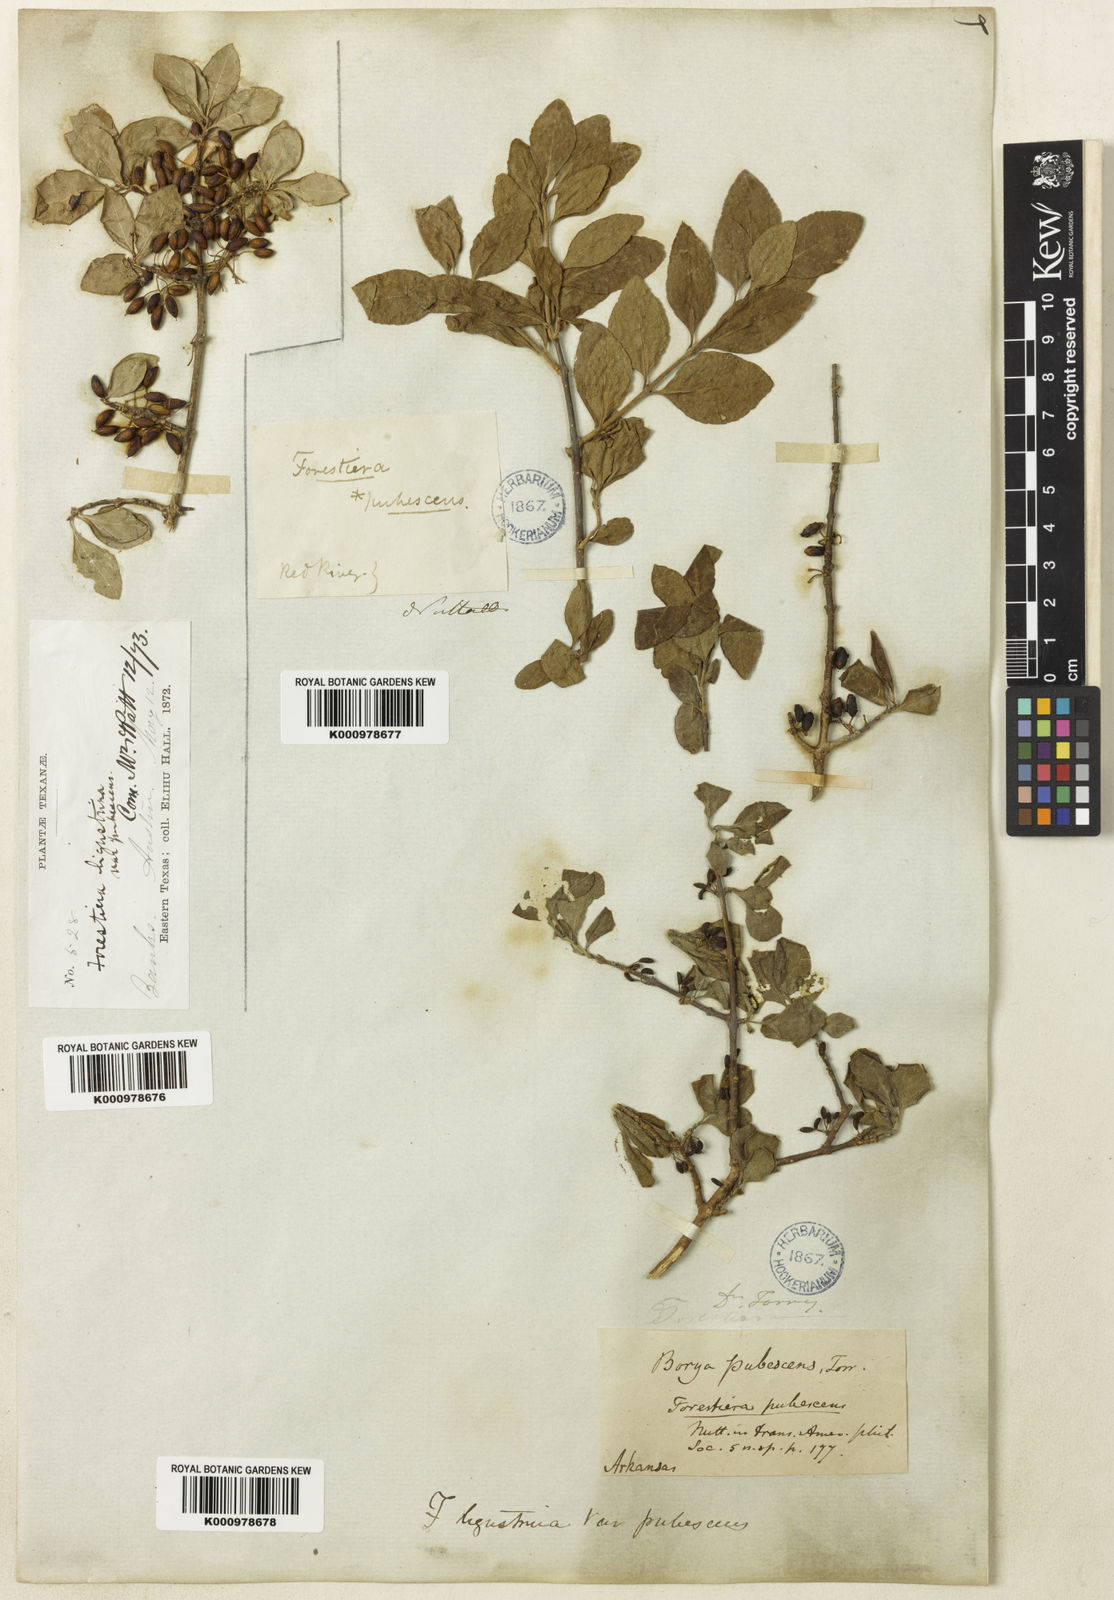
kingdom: Plantae
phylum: Tracheophyta
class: Magnoliopsida
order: Lamiales
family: Oleaceae
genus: Forestiera
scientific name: Forestiera pubescens
